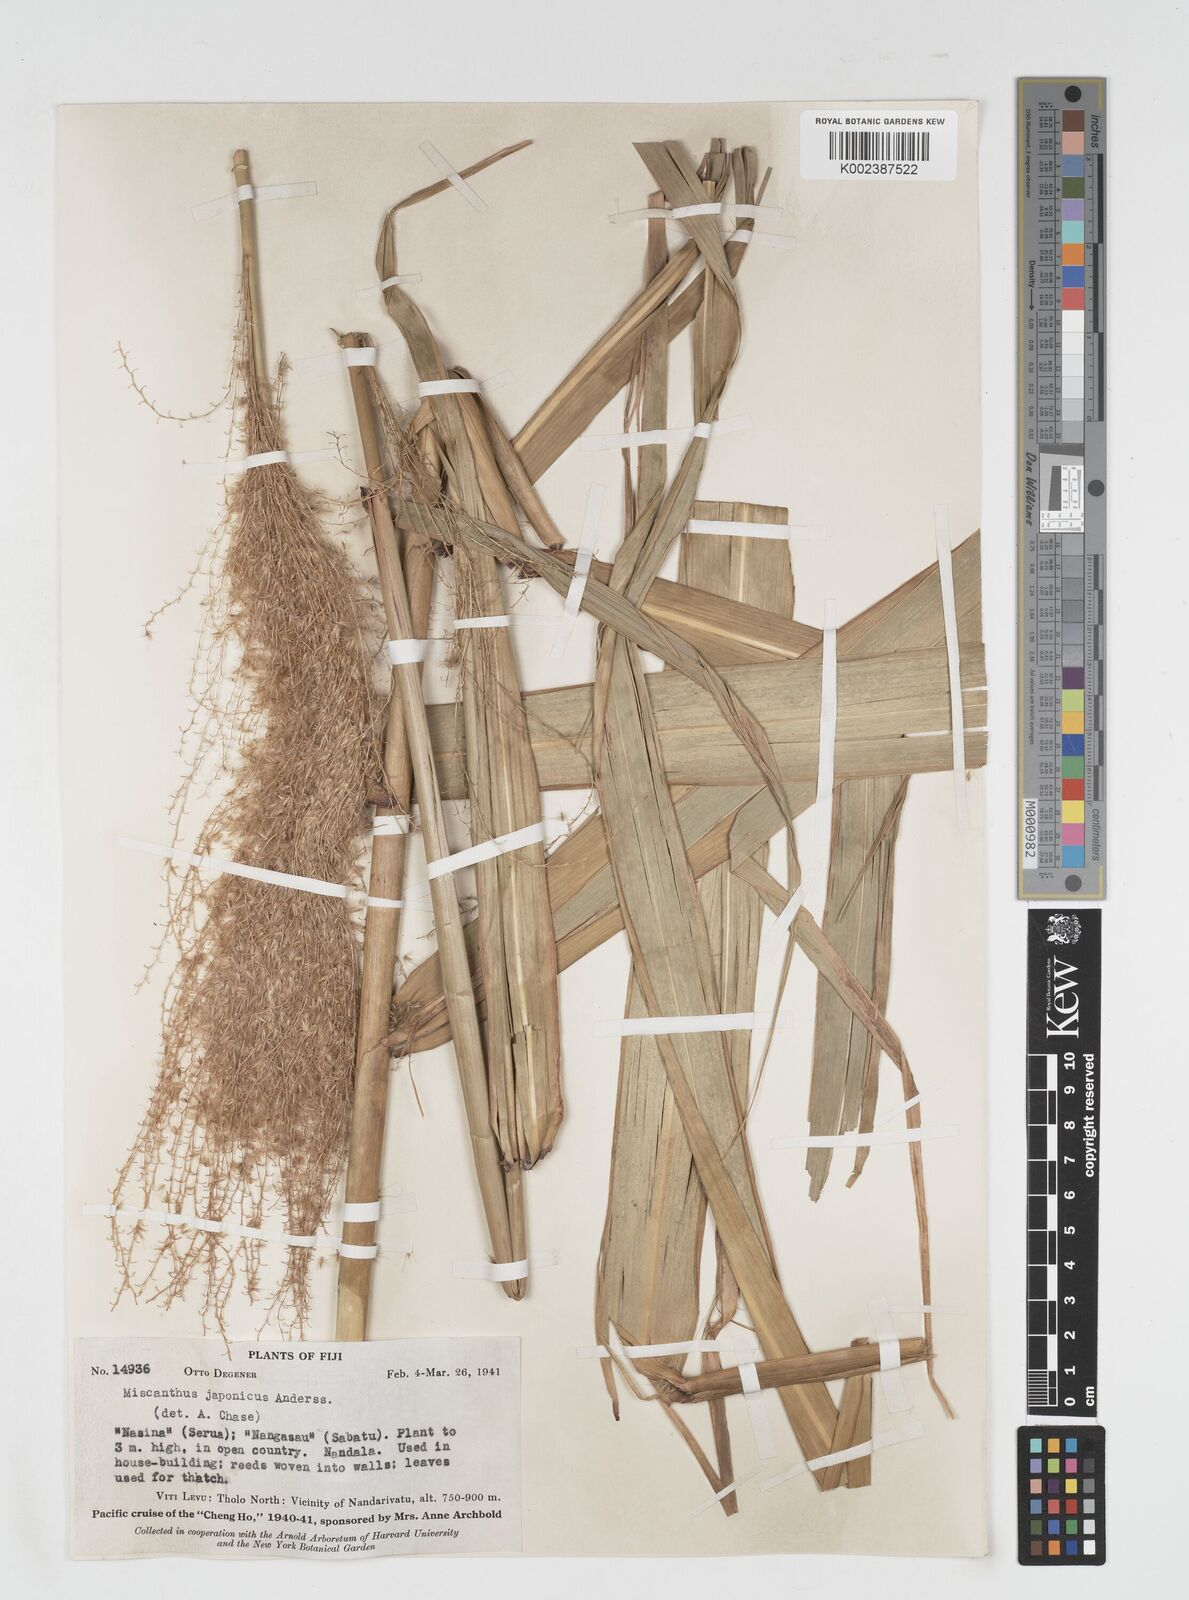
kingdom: Plantae
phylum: Tracheophyta
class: Liliopsida
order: Poales
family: Poaceae
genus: Miscanthus
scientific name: Miscanthus floridulus
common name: Pacific island silvergrass
